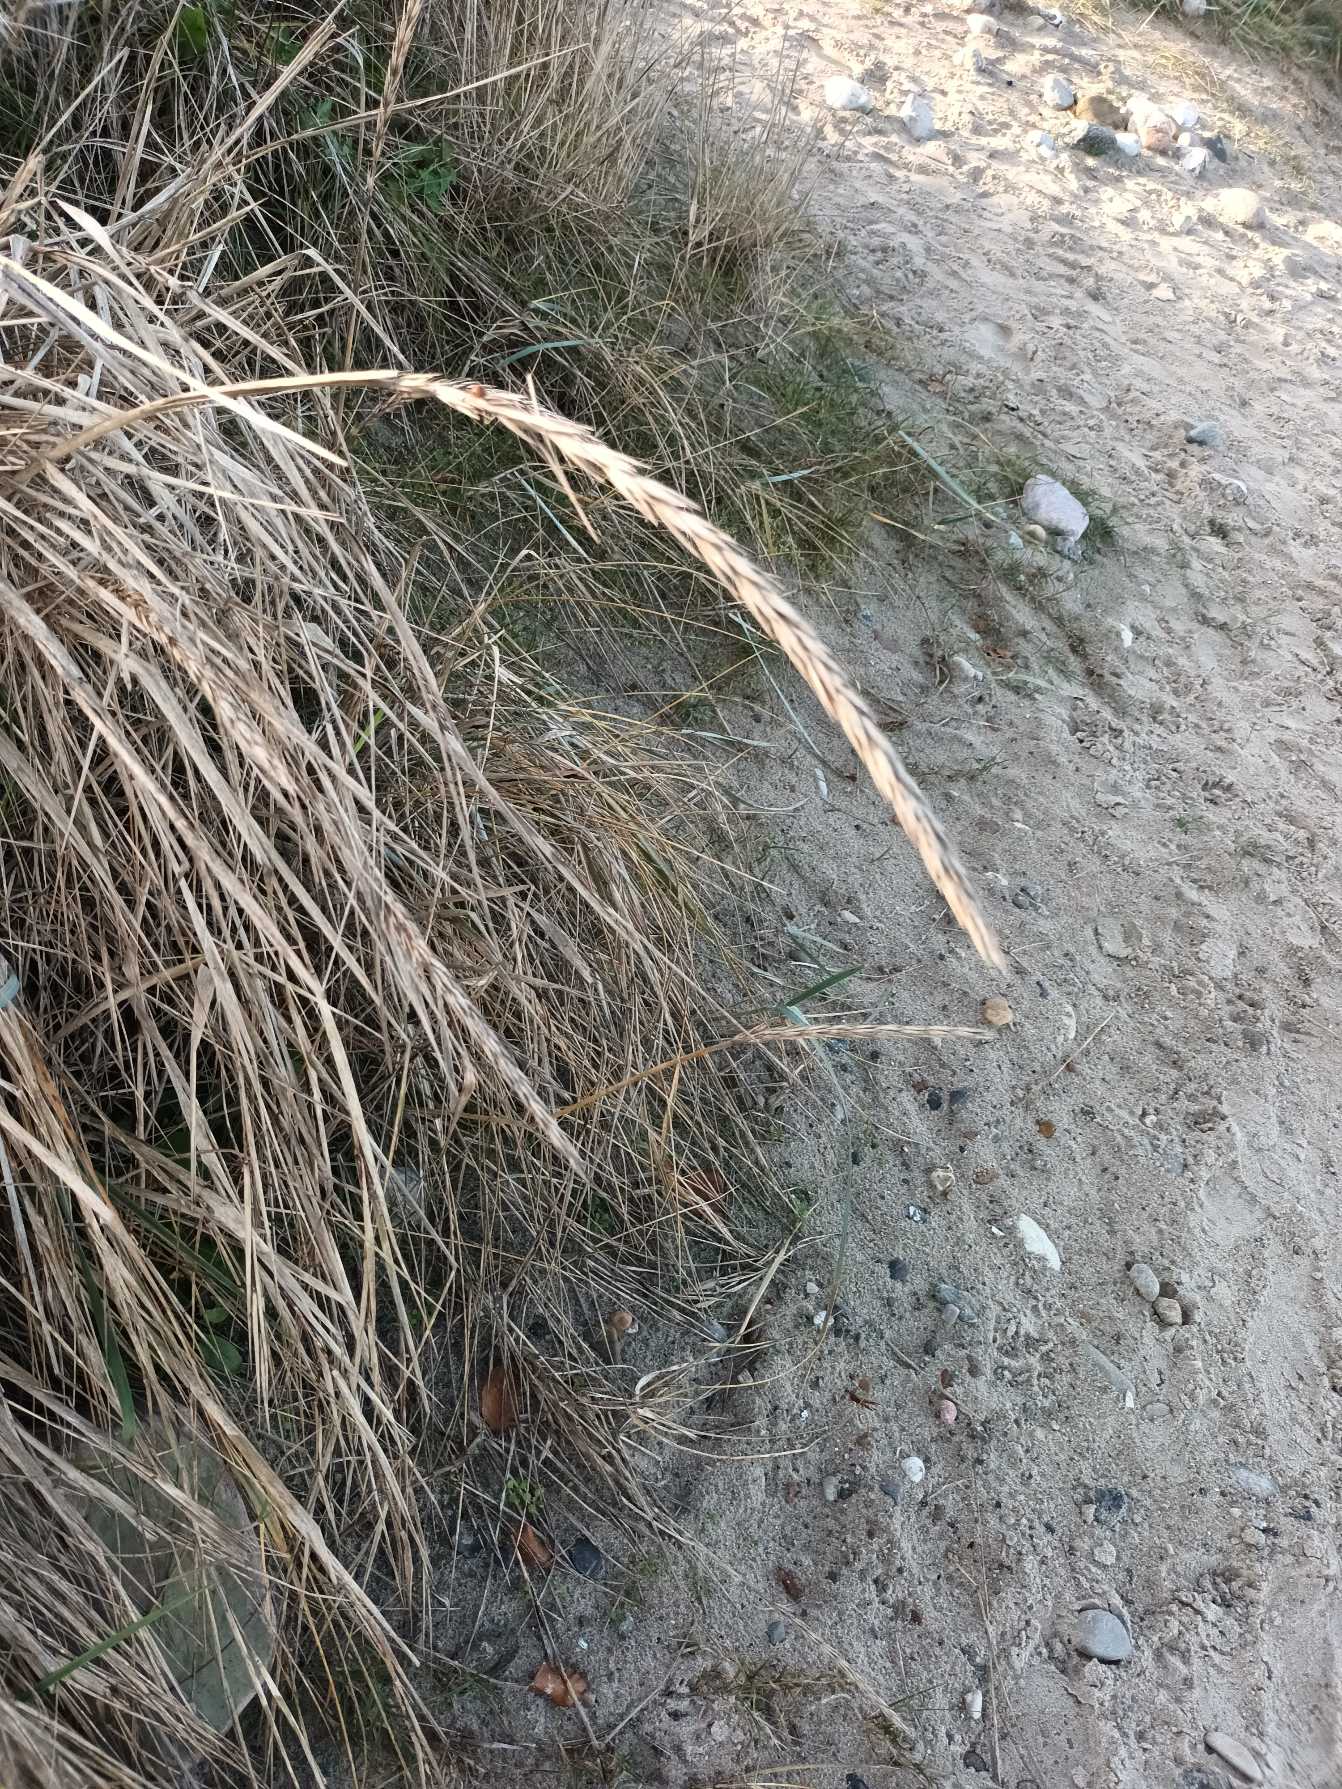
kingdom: Plantae
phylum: Tracheophyta
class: Liliopsida
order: Poales
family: Poaceae
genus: Leymus
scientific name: Leymus arenarius
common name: Marehalm
